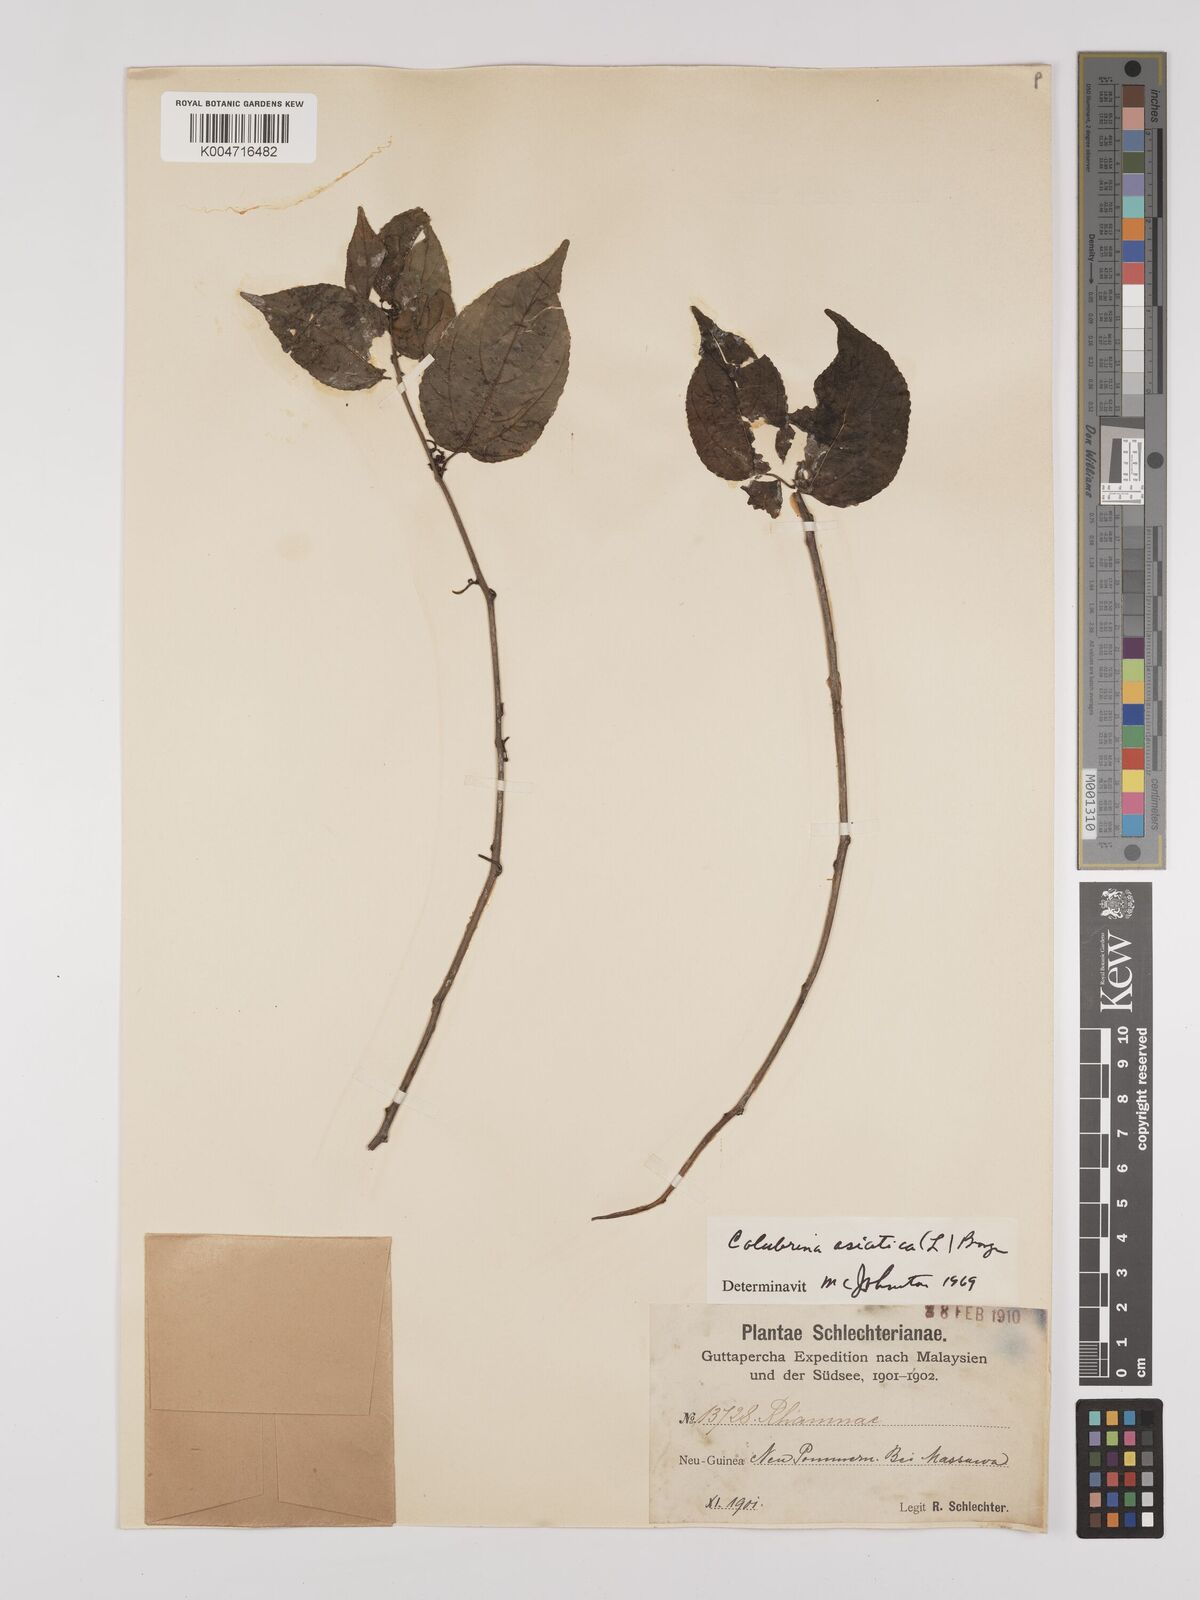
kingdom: Plantae
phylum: Tracheophyta
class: Magnoliopsida
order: Rosales
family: Rhamnaceae
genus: Colubrina
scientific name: Colubrina asiatica
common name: Asian nakedwood
